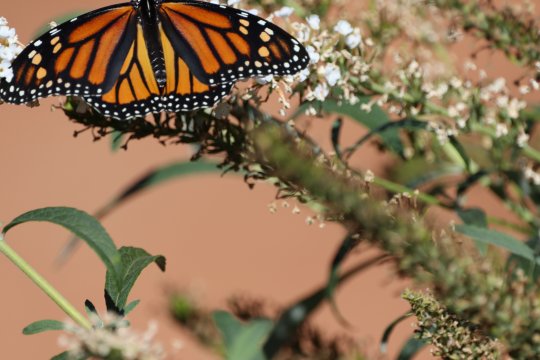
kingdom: Animalia
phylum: Arthropoda
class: Insecta
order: Lepidoptera
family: Nymphalidae
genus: Danaus
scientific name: Danaus plexippus
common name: Monarch
